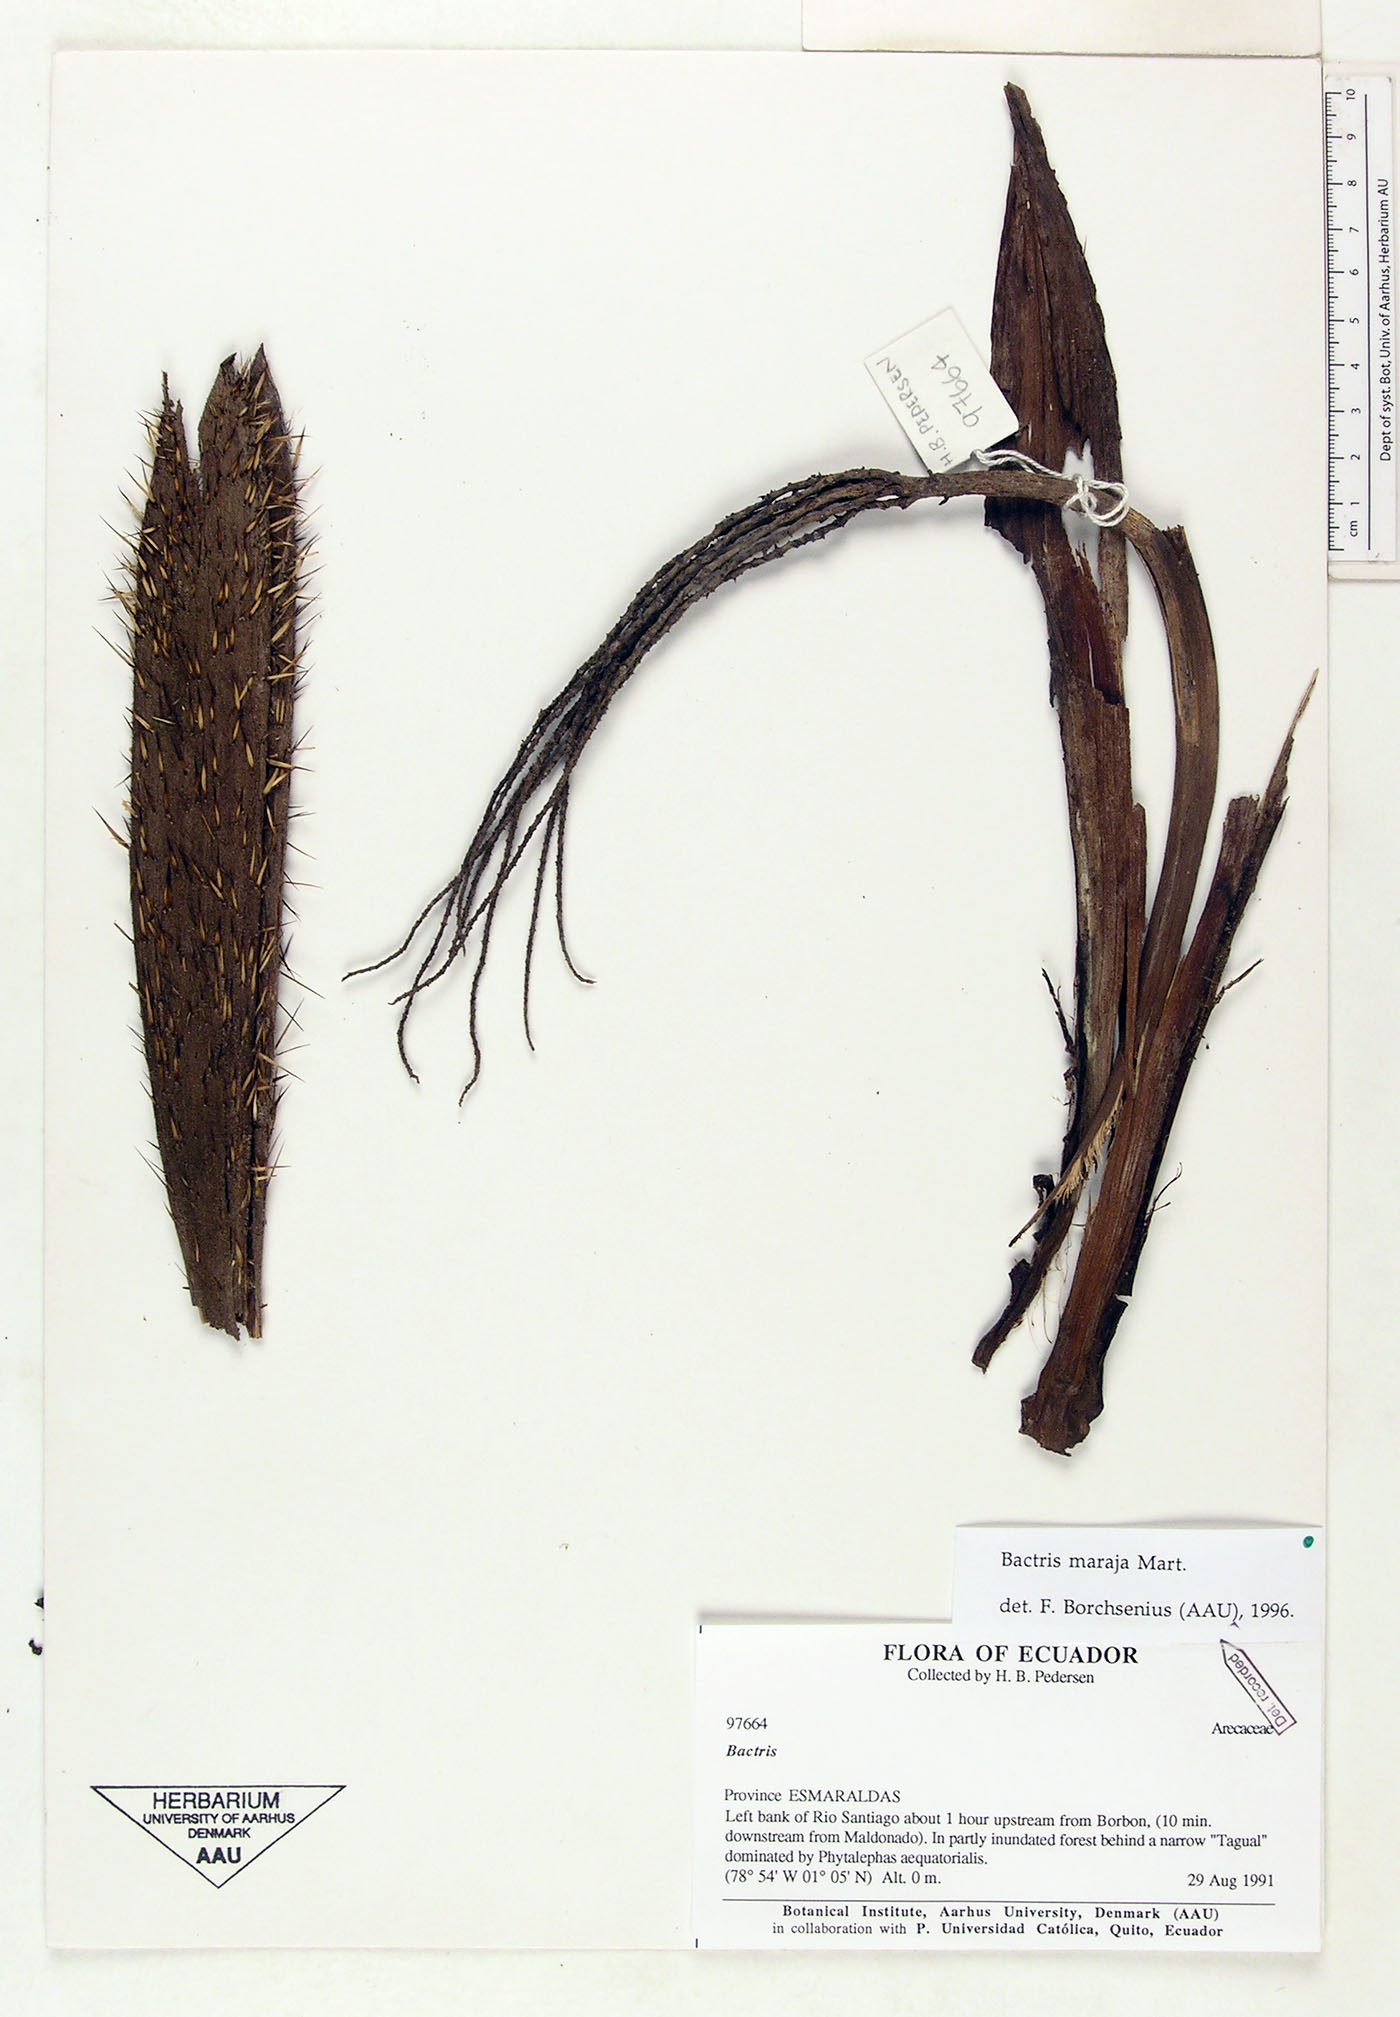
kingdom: Plantae
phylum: Tracheophyta
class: Liliopsida
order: Arecales
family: Arecaceae
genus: Bactris
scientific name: Bactris maraja
